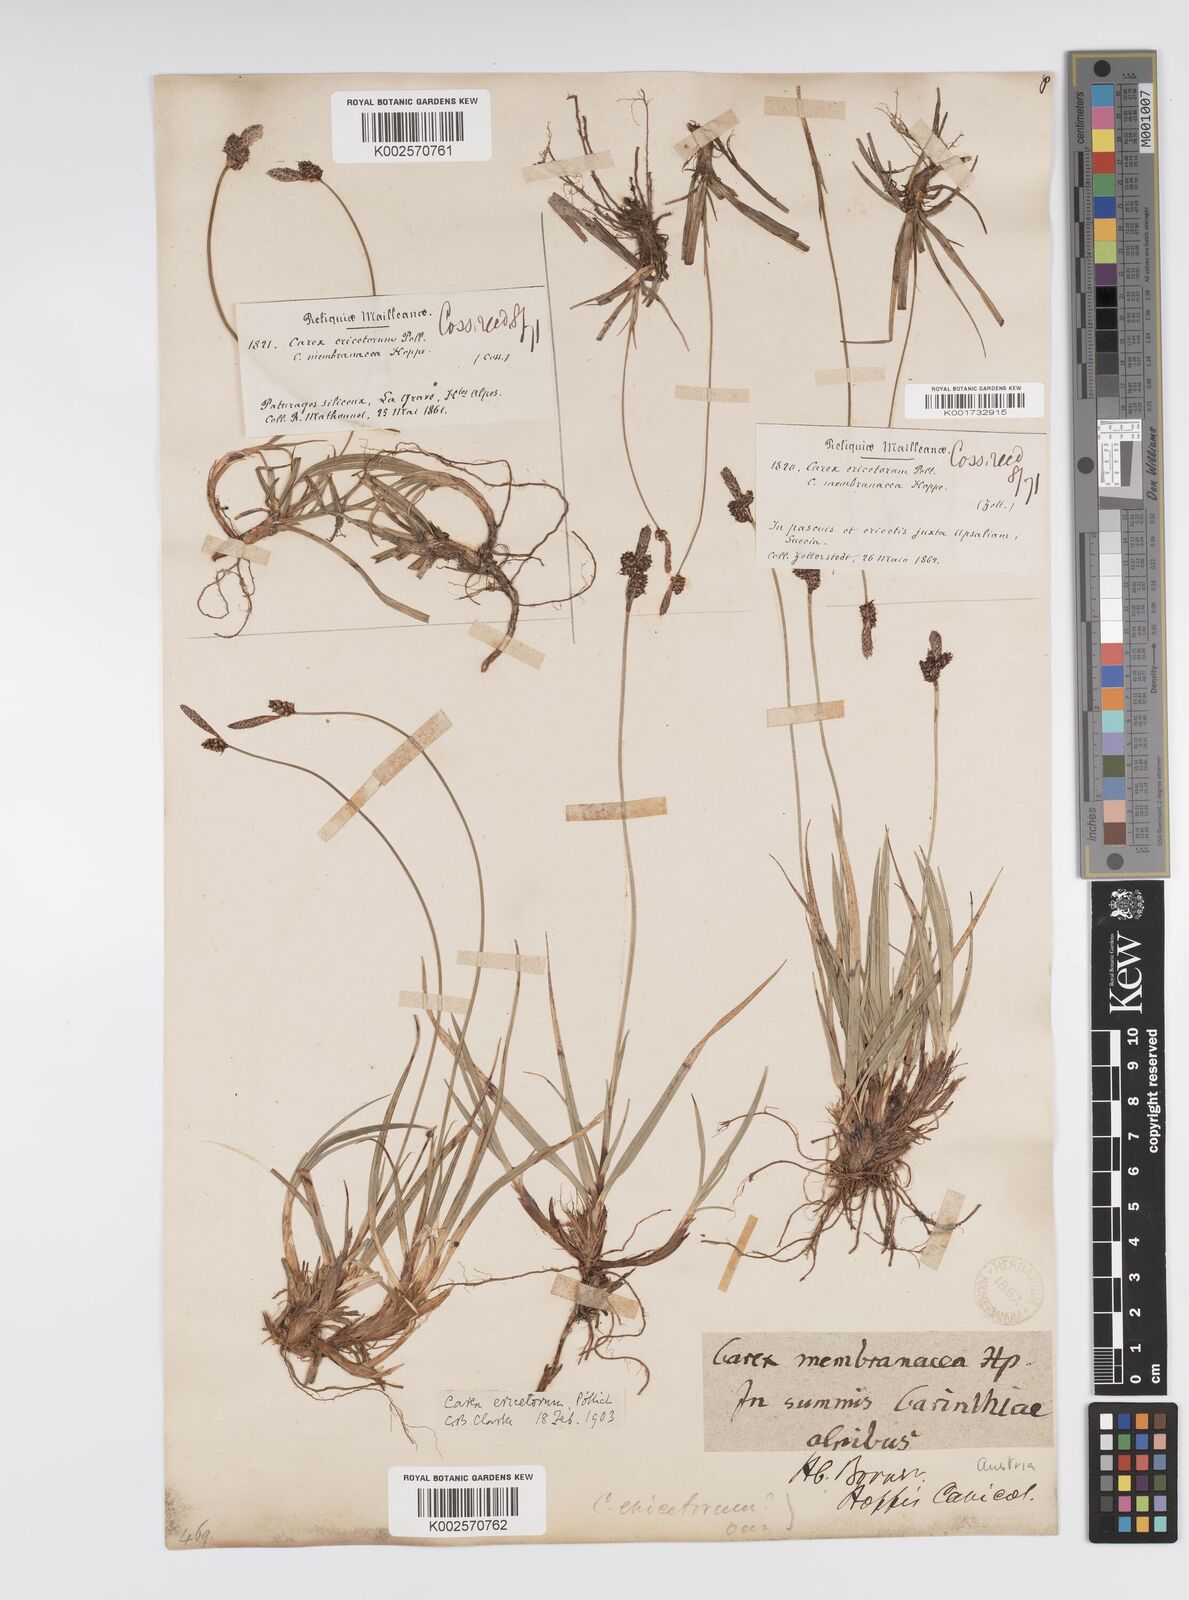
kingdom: Plantae
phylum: Tracheophyta
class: Liliopsida
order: Poales
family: Cyperaceae
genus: Carex
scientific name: Carex ericetorum
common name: Rare spring-sedge
